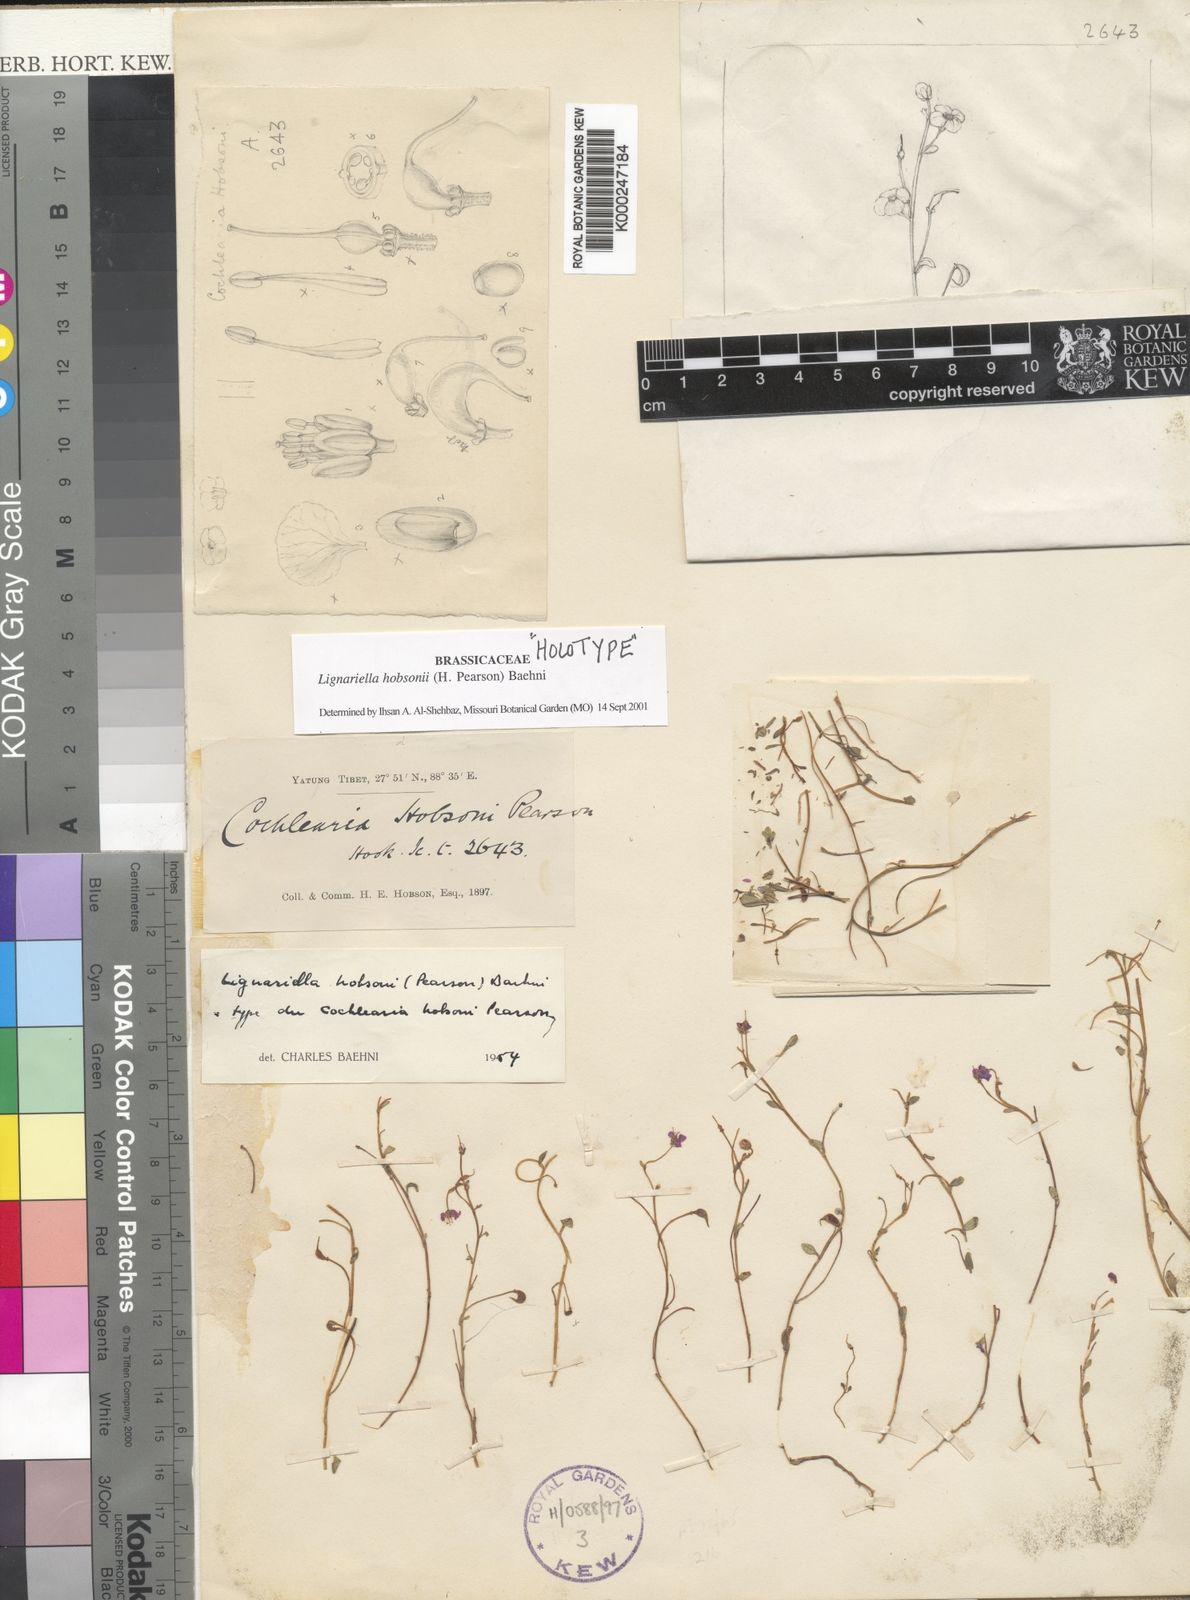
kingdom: Plantae
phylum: Tracheophyta
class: Magnoliopsida
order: Brassicales
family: Brassicaceae
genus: Aphragmus
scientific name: Aphragmus
